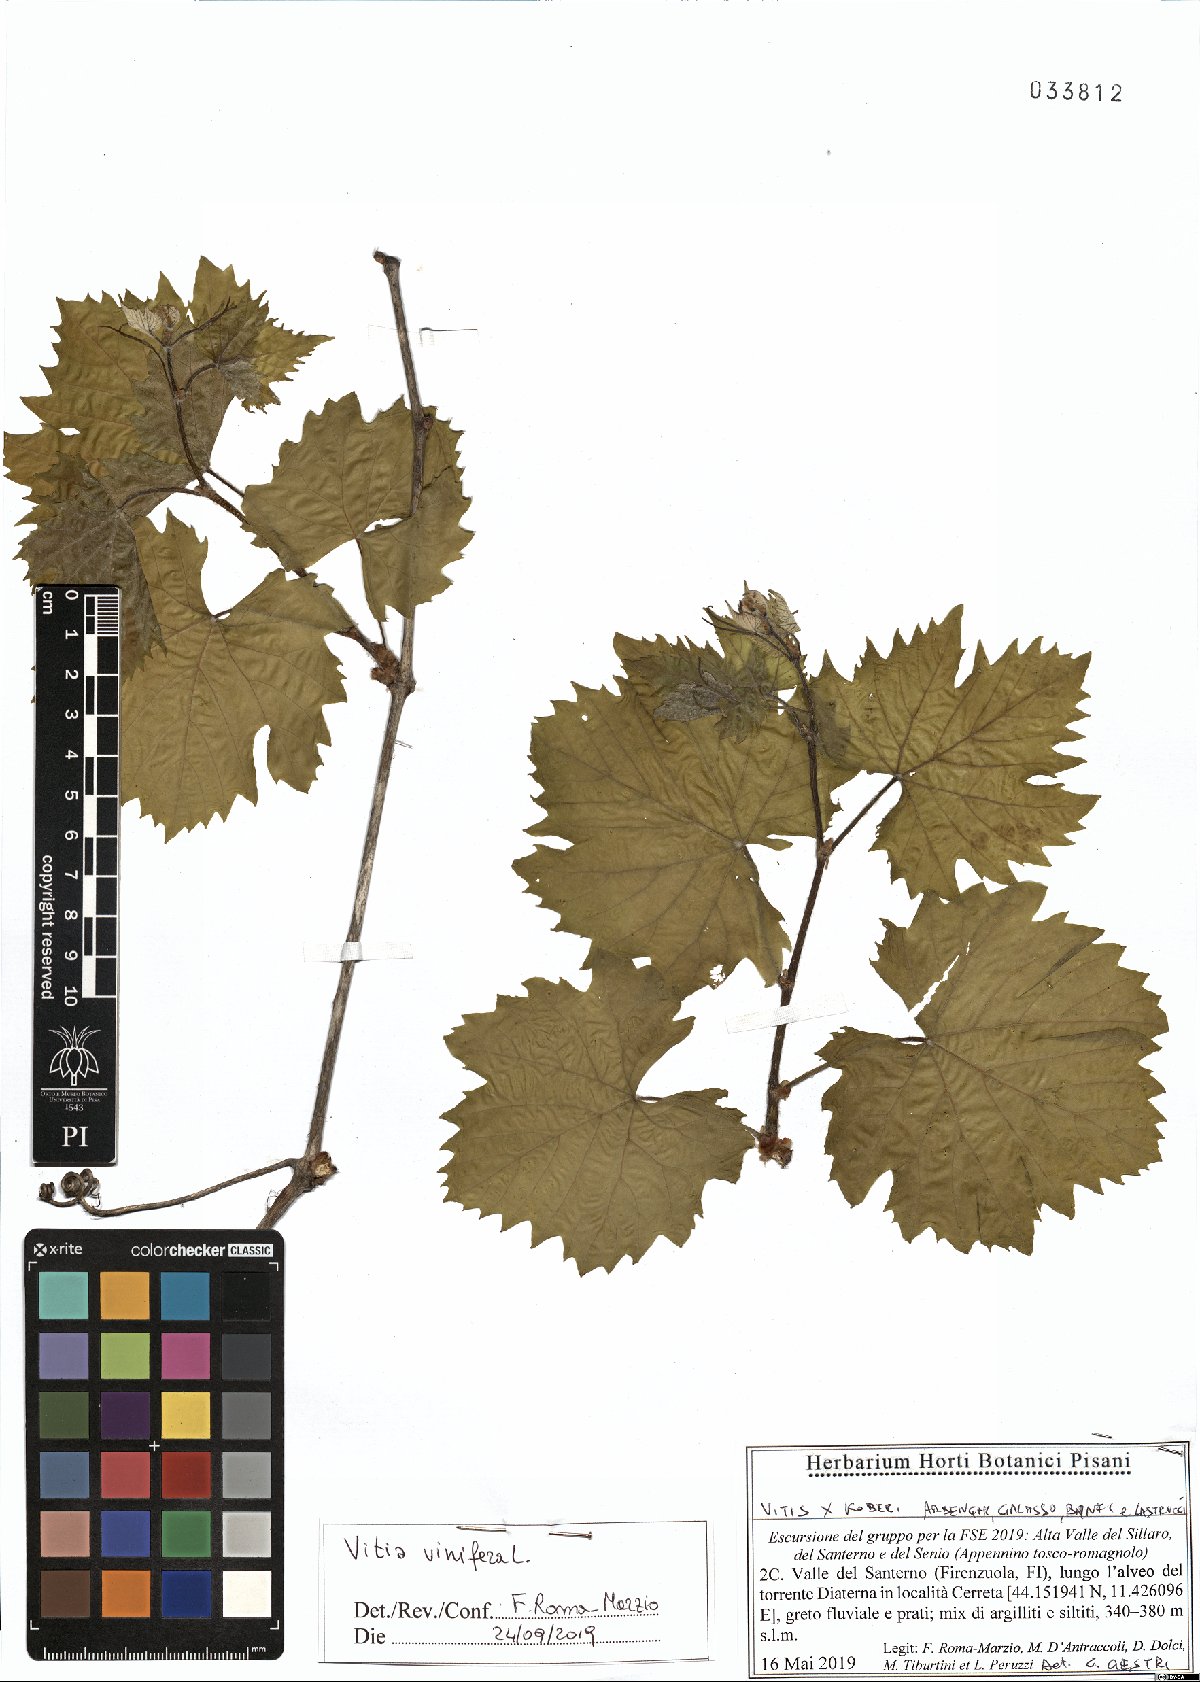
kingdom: Plantae
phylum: Tracheophyta
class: Magnoliopsida
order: Vitales
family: Vitaceae
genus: Vitis
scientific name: Vitis vinifera
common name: Grape-vine
